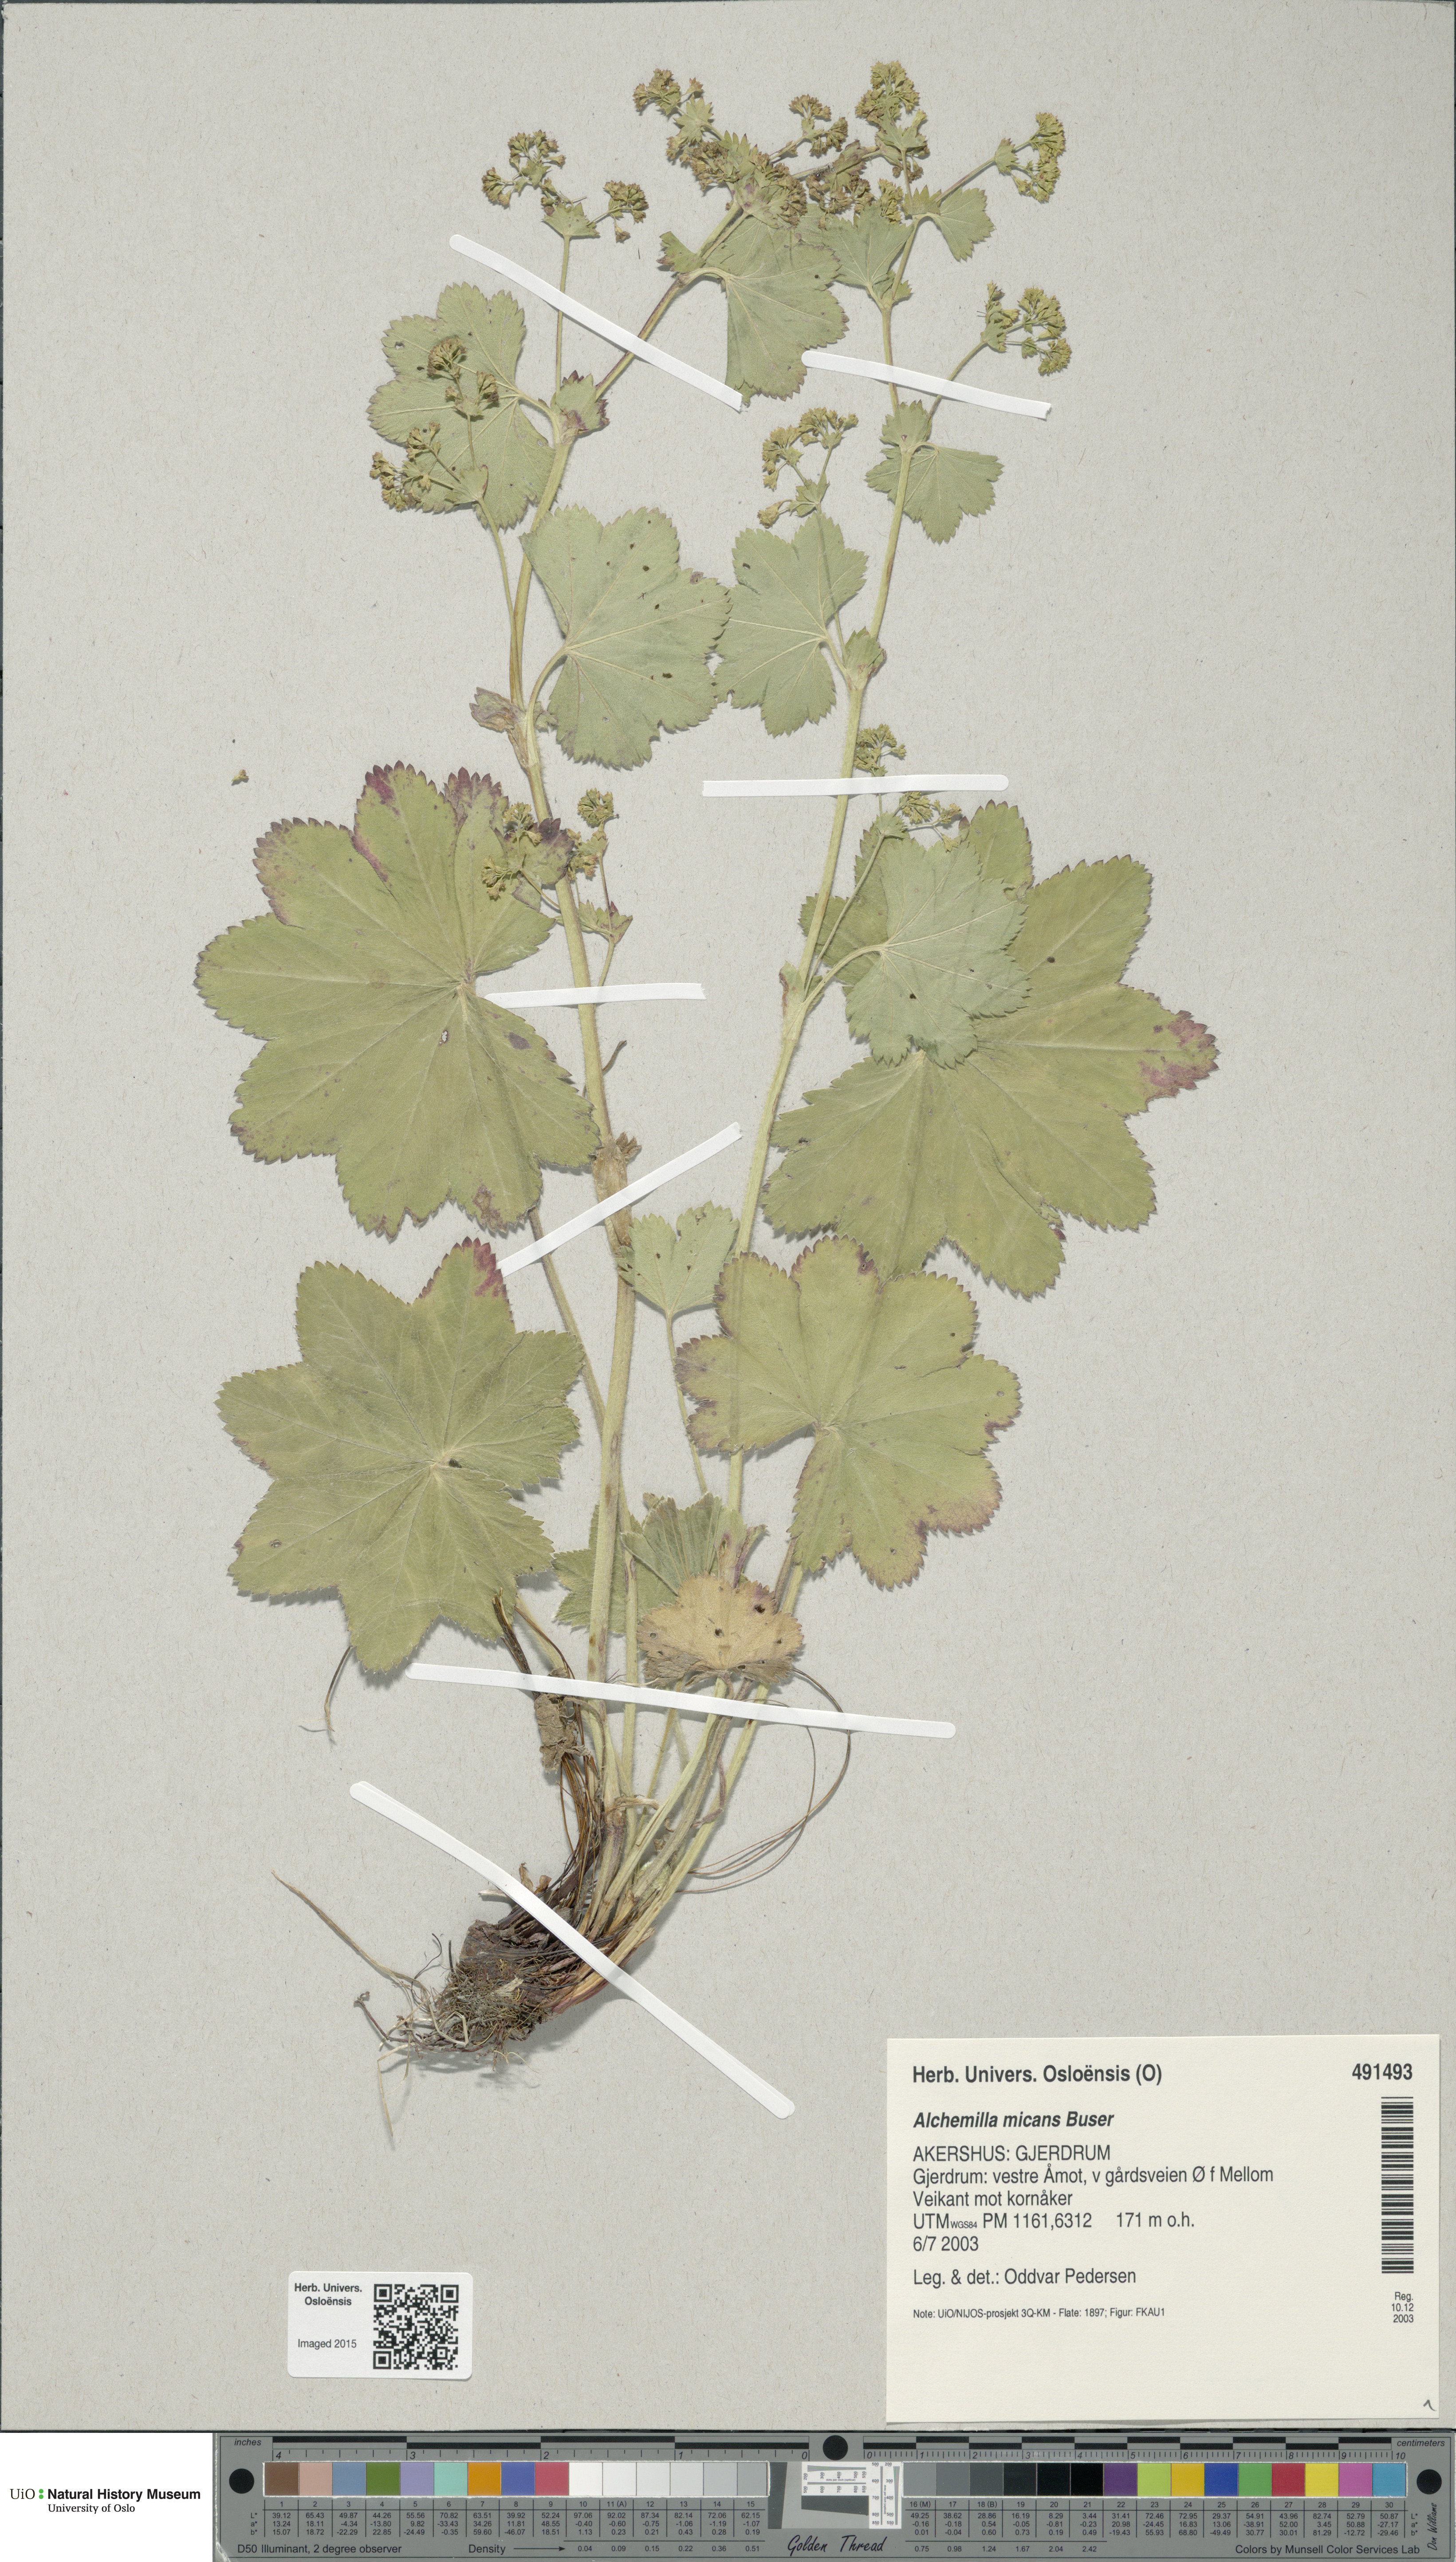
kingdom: Plantae
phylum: Tracheophyta
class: Magnoliopsida
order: Rosales
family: Rosaceae
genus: Alchemilla
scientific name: Alchemilla micans
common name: Gleaming lady's mantle
